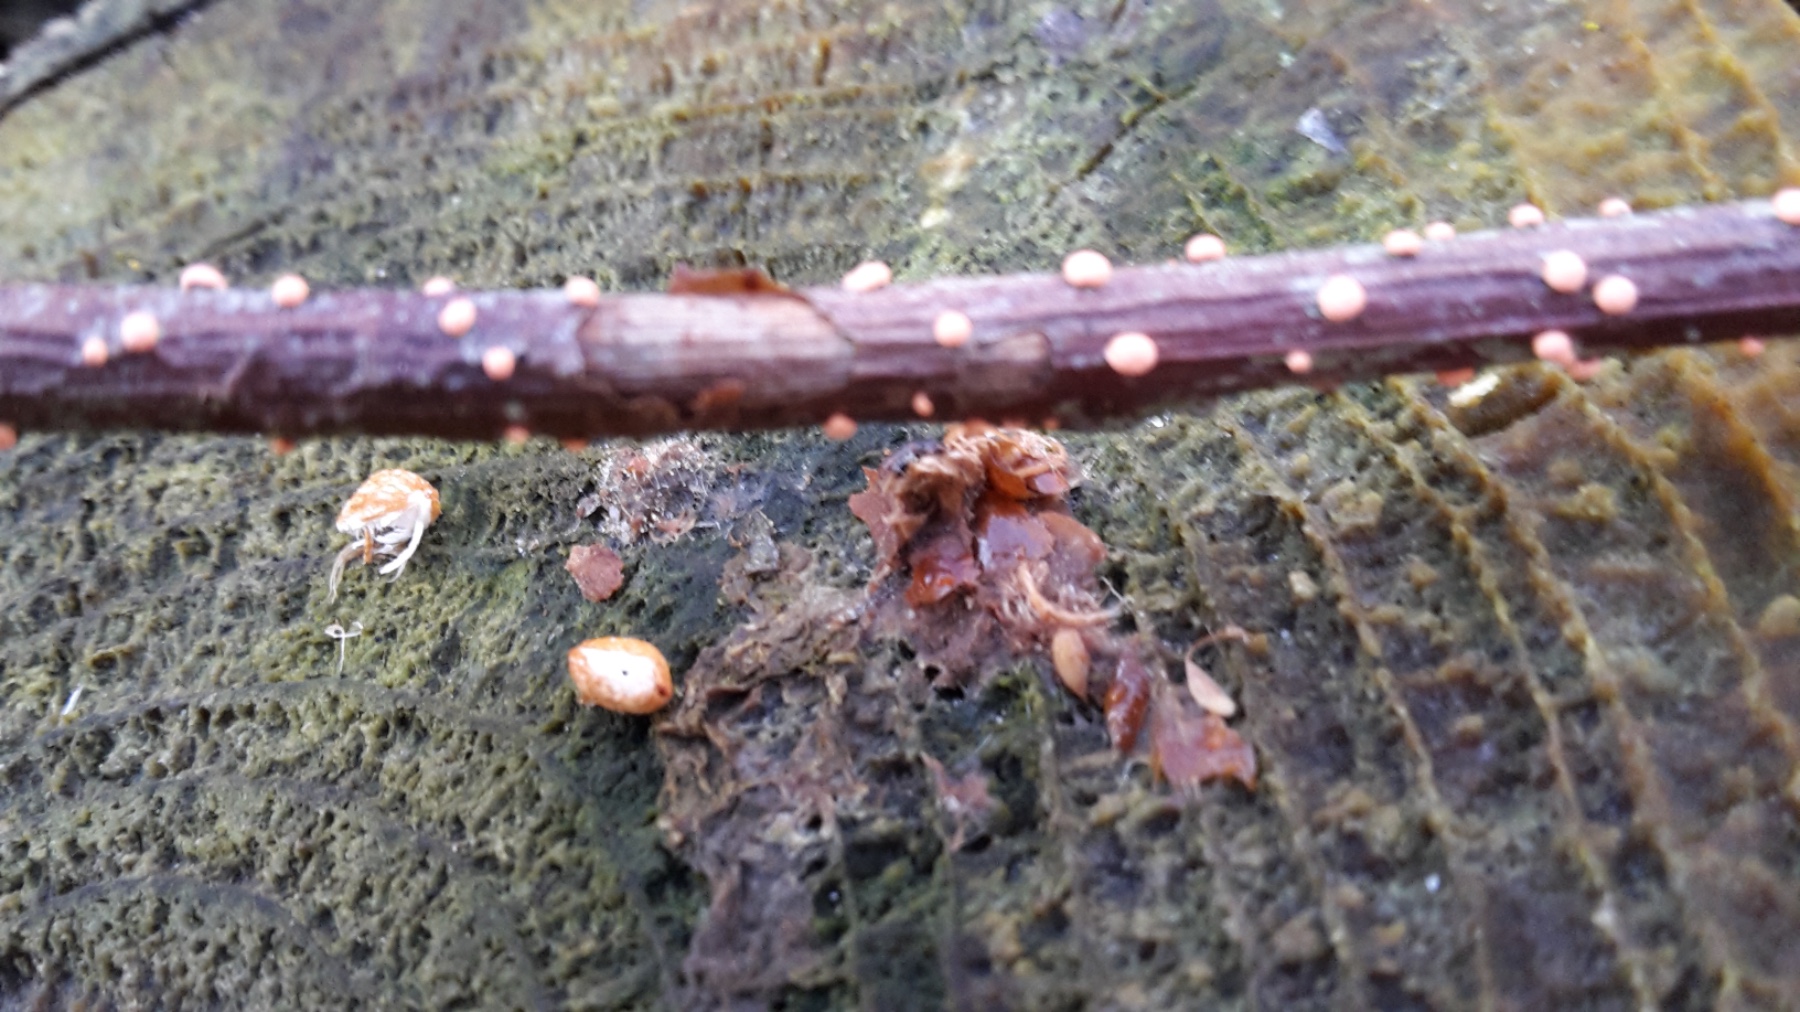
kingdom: Fungi
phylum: Ascomycota
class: Sordariomycetes
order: Hypocreales
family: Nectriaceae
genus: Nectria
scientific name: Nectria cinnabarina
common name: almindelig cinnobersvamp
